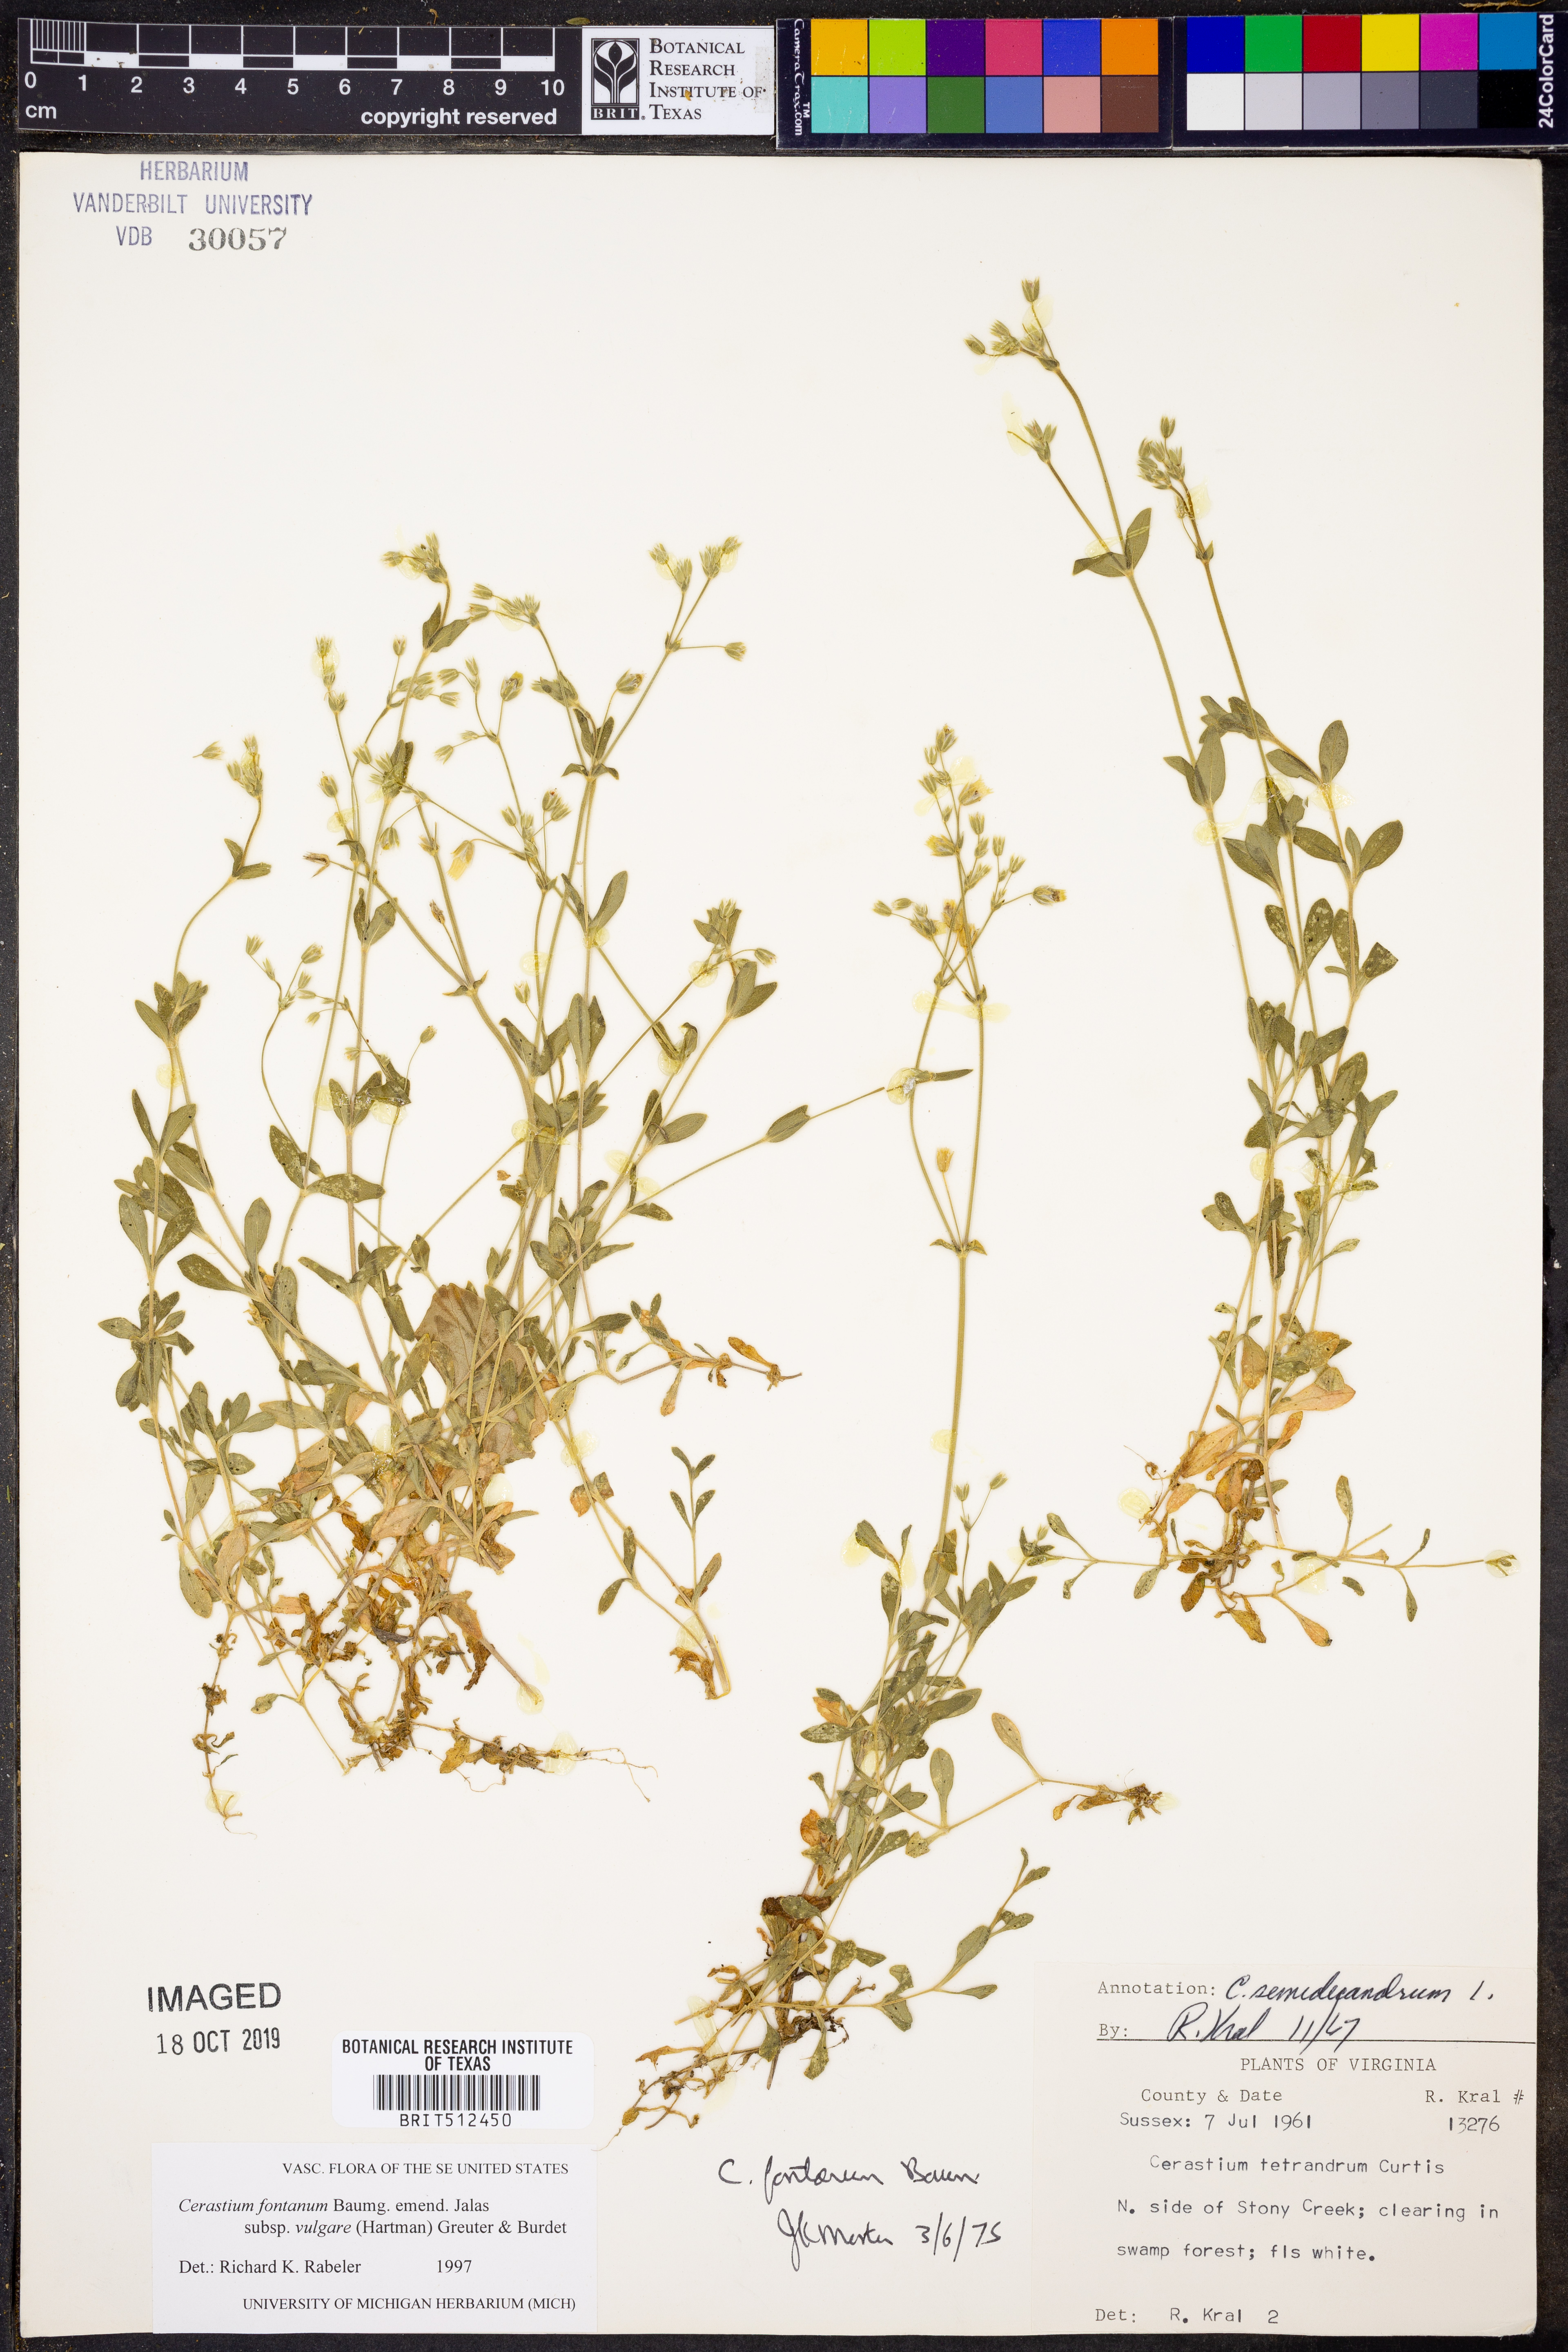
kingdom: Plantae
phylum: Tracheophyta
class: Magnoliopsida
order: Caryophyllales
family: Caryophyllaceae
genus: Cerastium
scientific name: Cerastium holosteoides
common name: Big chickweed
